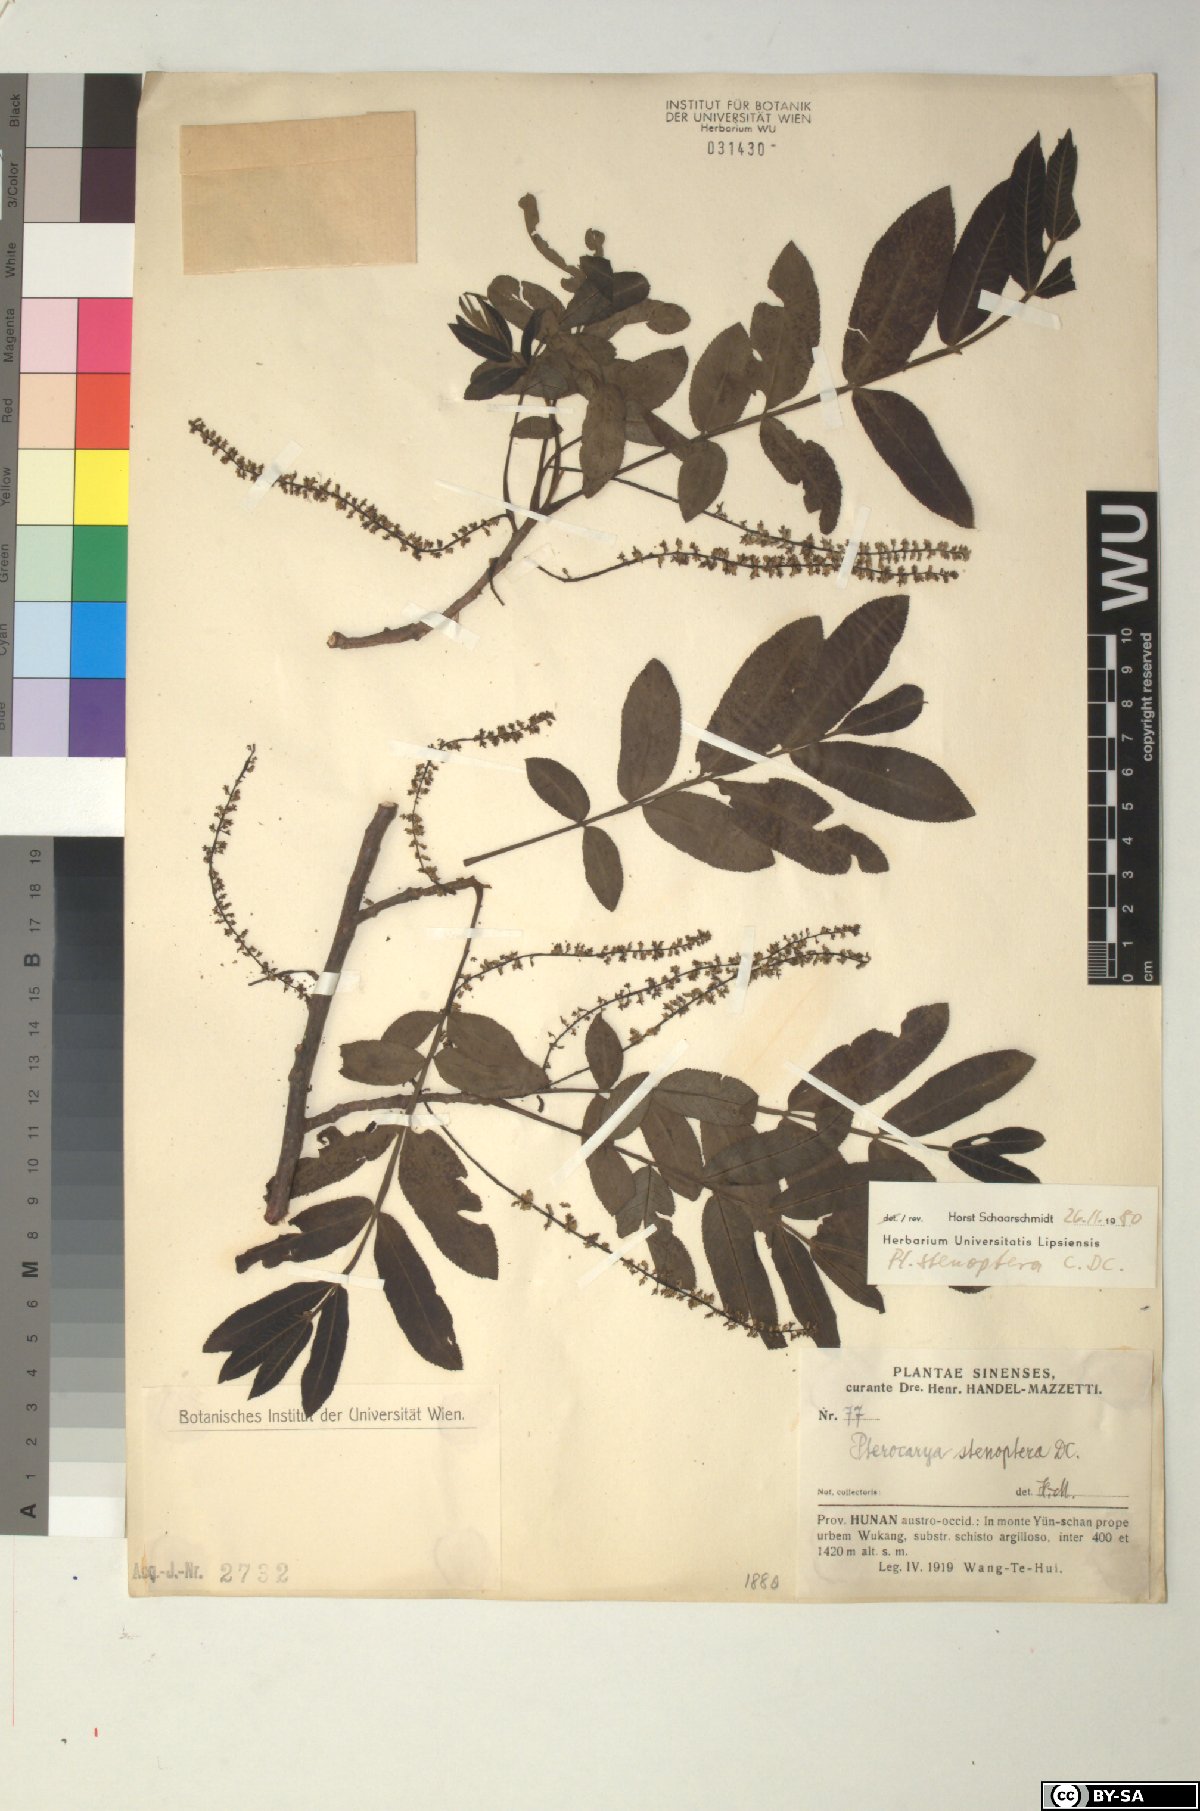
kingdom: Plantae
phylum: Tracheophyta
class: Magnoliopsida
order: Fagales
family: Juglandaceae
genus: Pterocarya
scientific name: Pterocarya stenoptera
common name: Chinese wingnut
